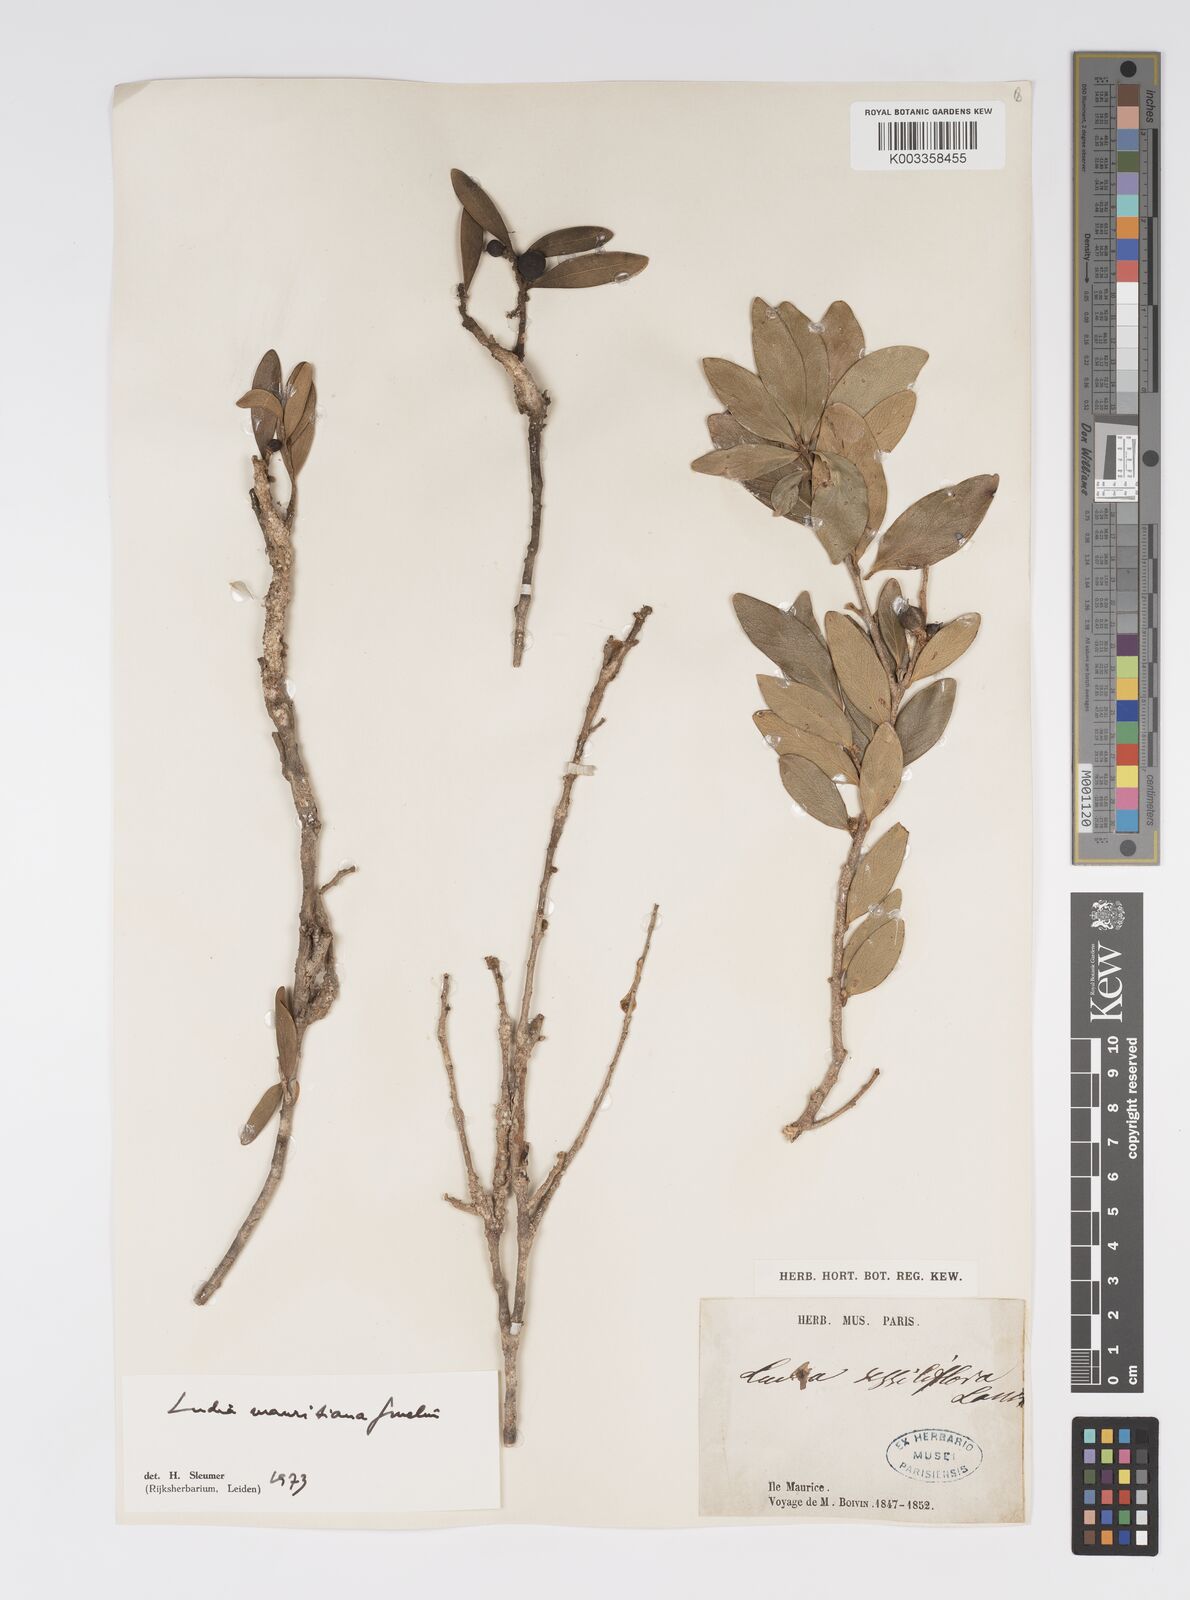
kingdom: Plantae
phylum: Tracheophyta
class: Magnoliopsida
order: Malpighiales
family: Salicaceae
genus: Ludia
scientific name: Ludia mauritiana
